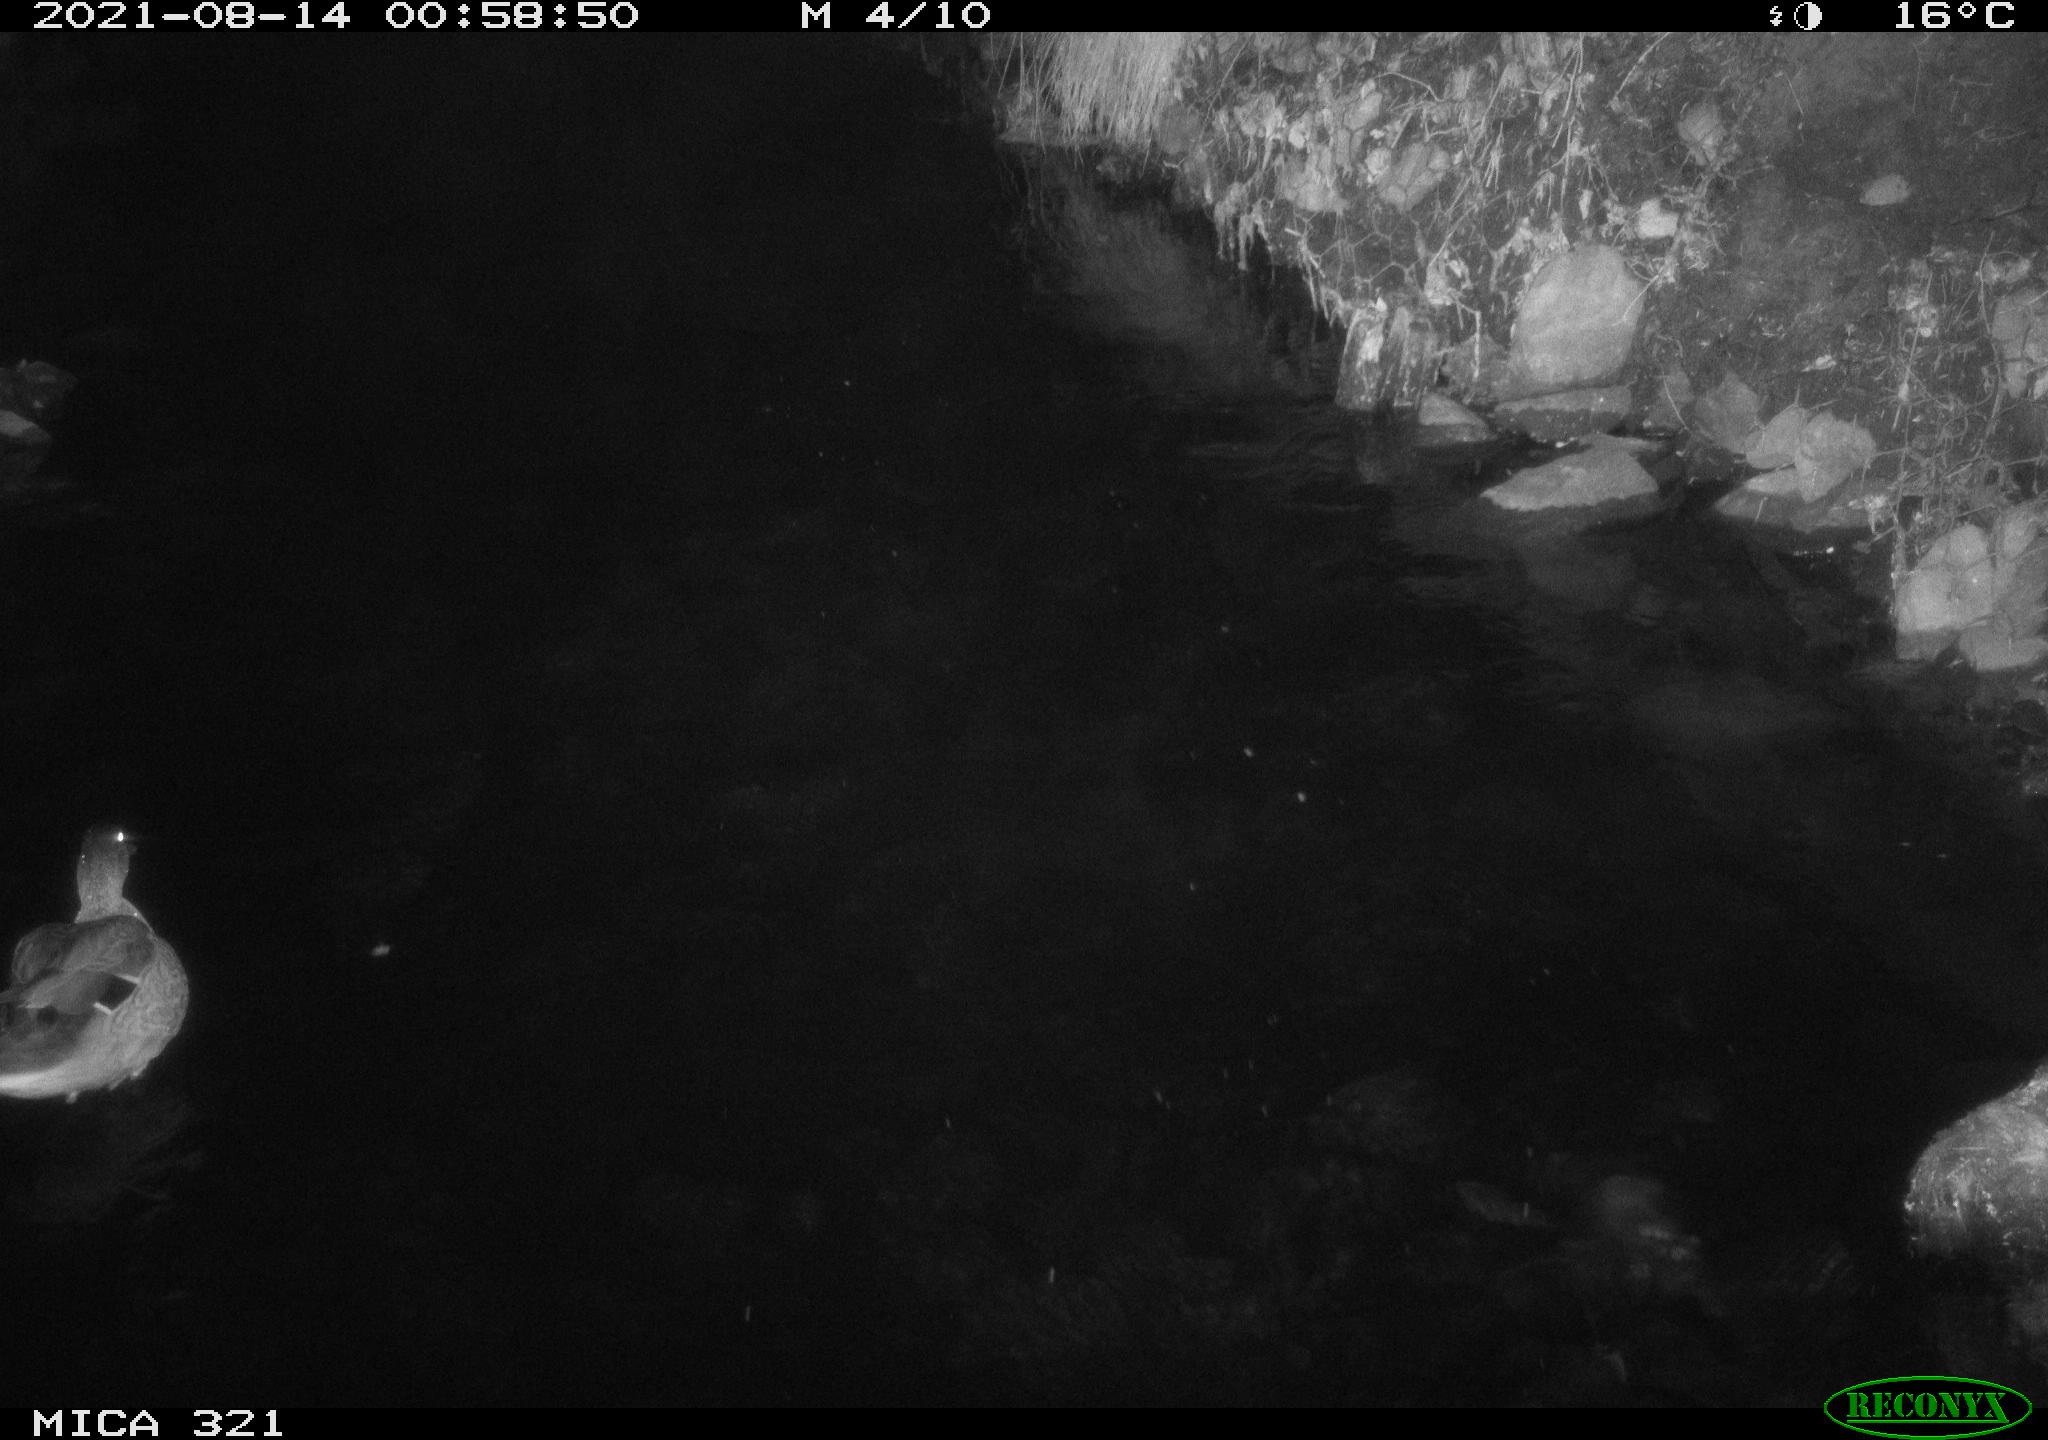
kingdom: Animalia
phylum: Chordata
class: Aves
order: Anseriformes
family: Anatidae
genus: Anas
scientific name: Anas platyrhynchos
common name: Mallard
